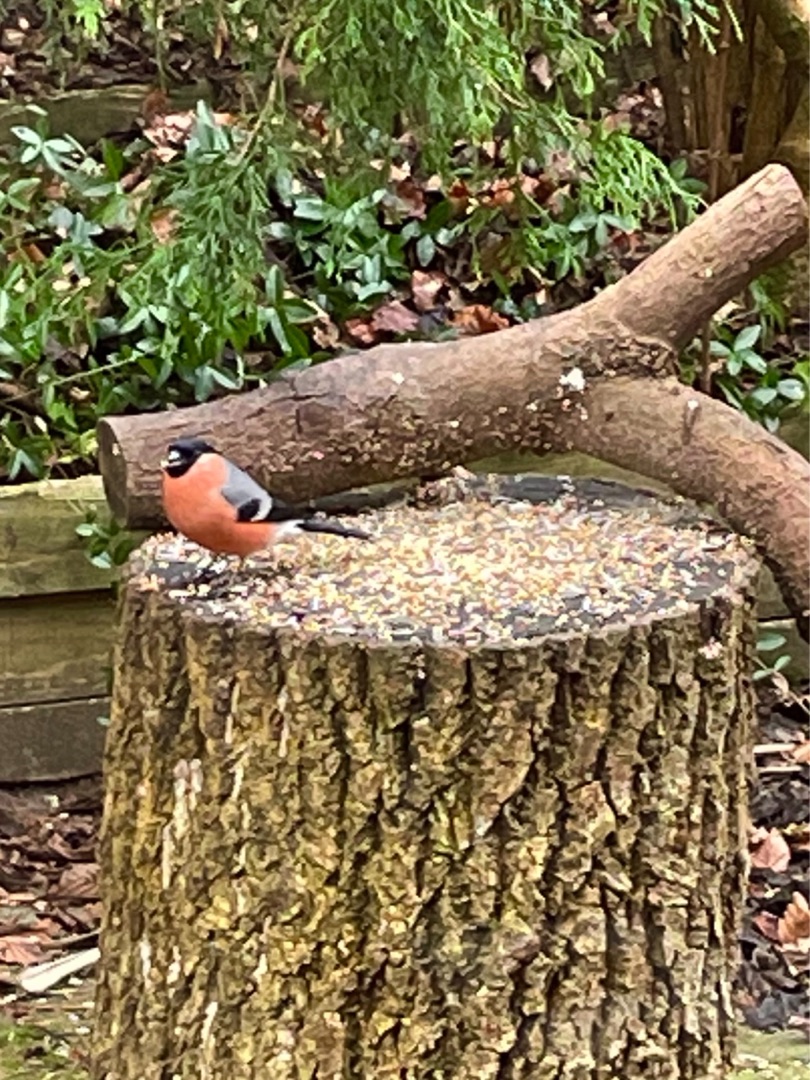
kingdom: Animalia
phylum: Chordata
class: Aves
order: Passeriformes
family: Fringillidae
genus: Pyrrhula
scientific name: Pyrrhula pyrrhula
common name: Dompap
